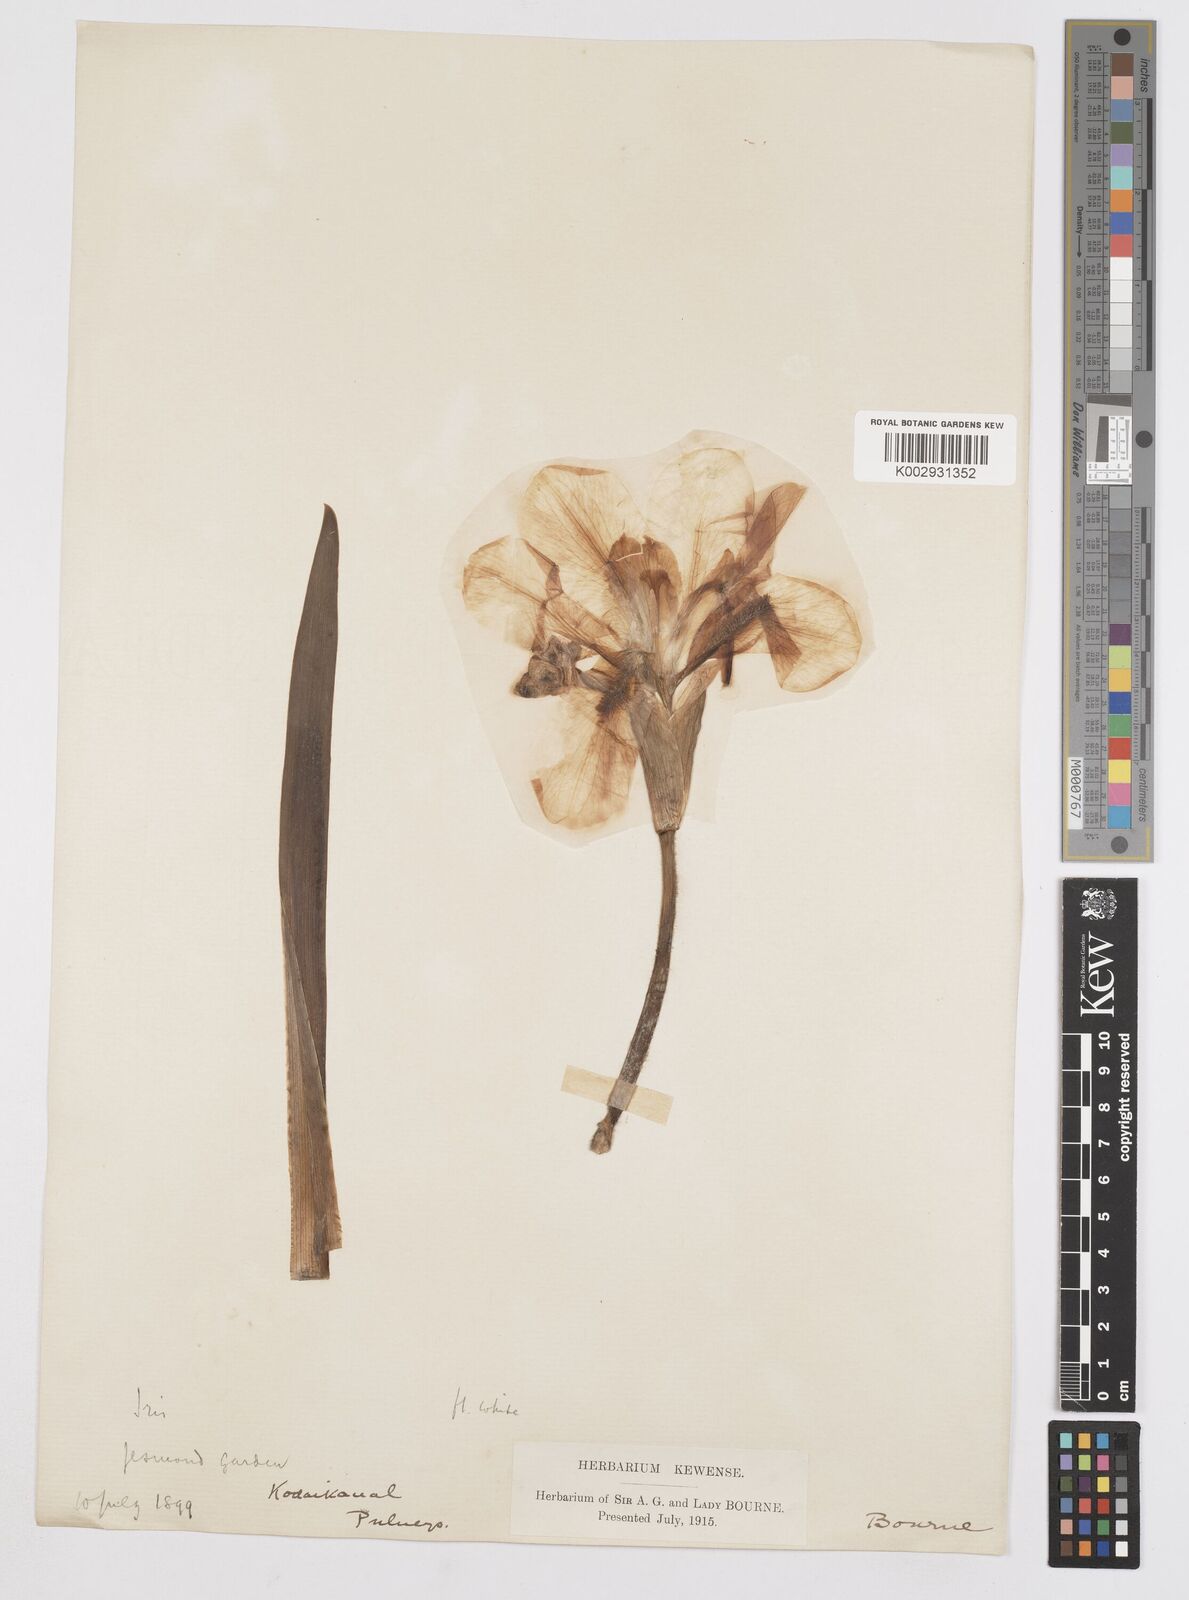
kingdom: Plantae
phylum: Tracheophyta
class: Liliopsida
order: Asparagales
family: Iridaceae
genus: Iris
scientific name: Iris
